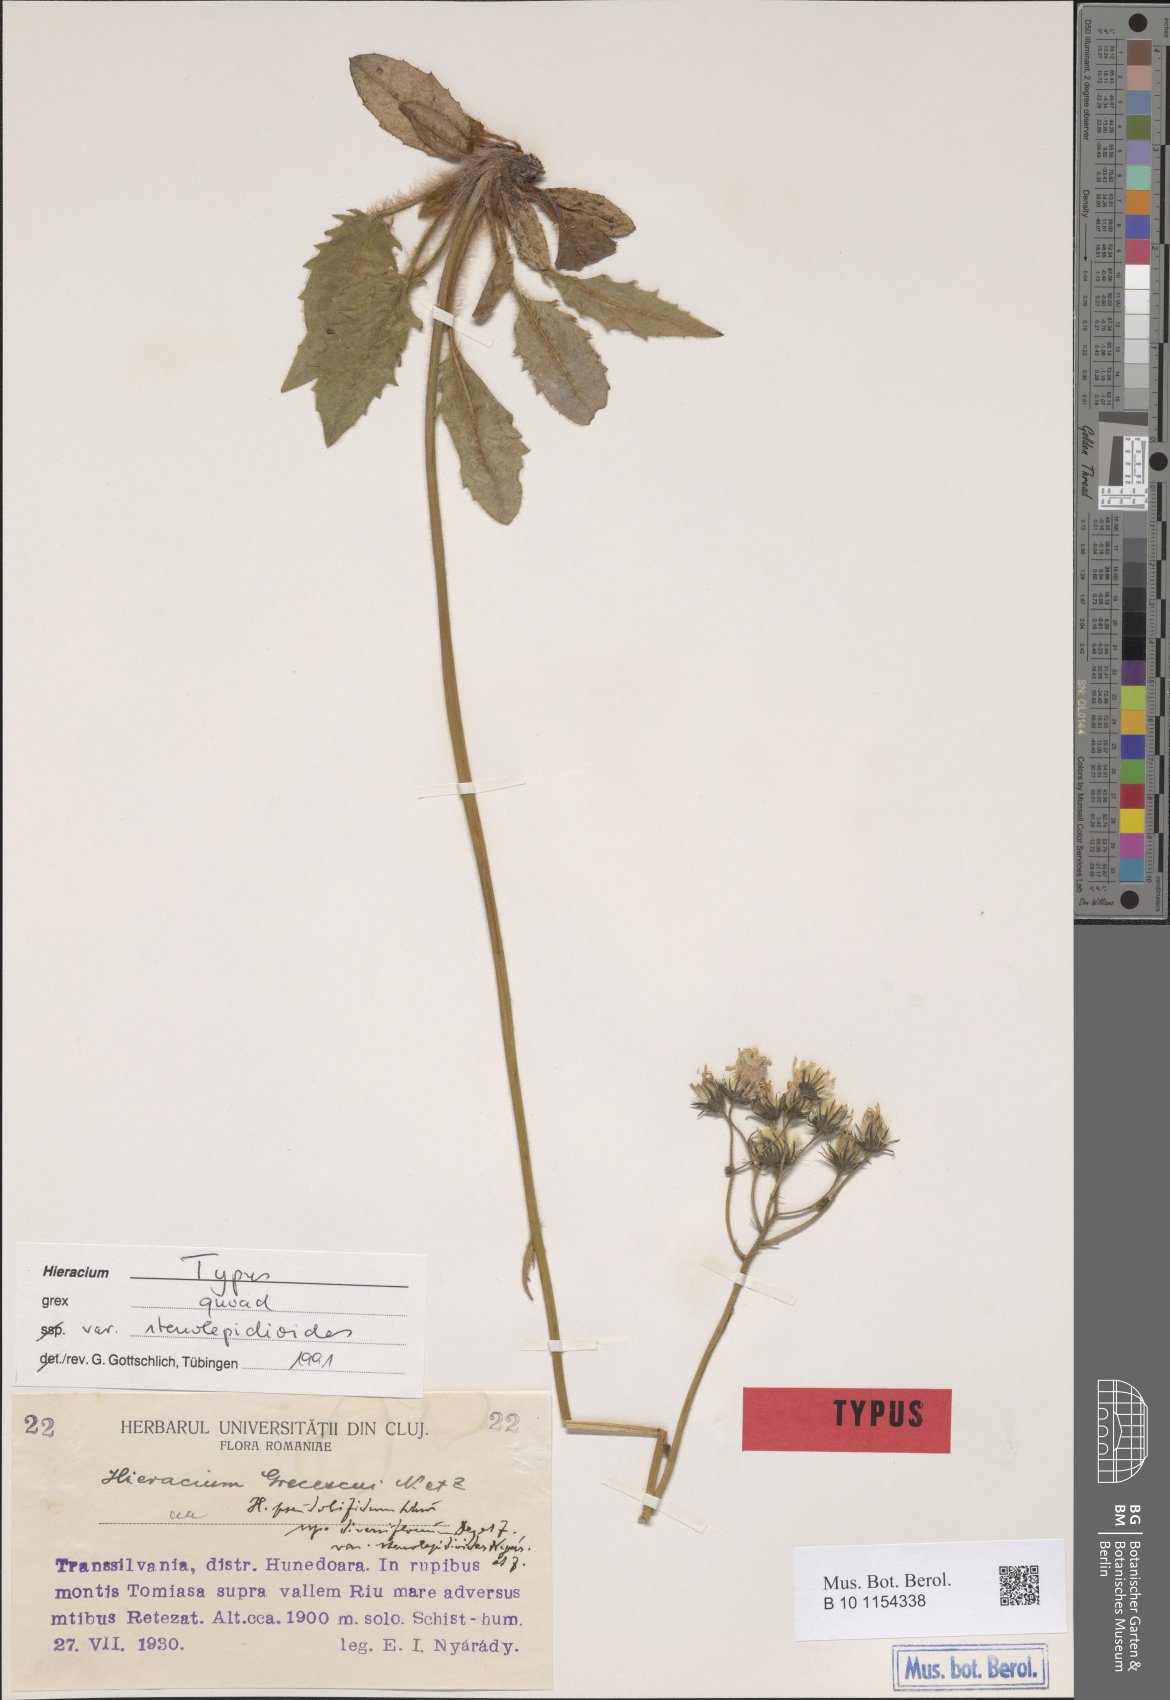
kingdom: Plantae
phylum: Tracheophyta
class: Magnoliopsida
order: Asterales
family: Asteraceae
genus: Hieracium
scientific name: Hieracium pseudobifidum
